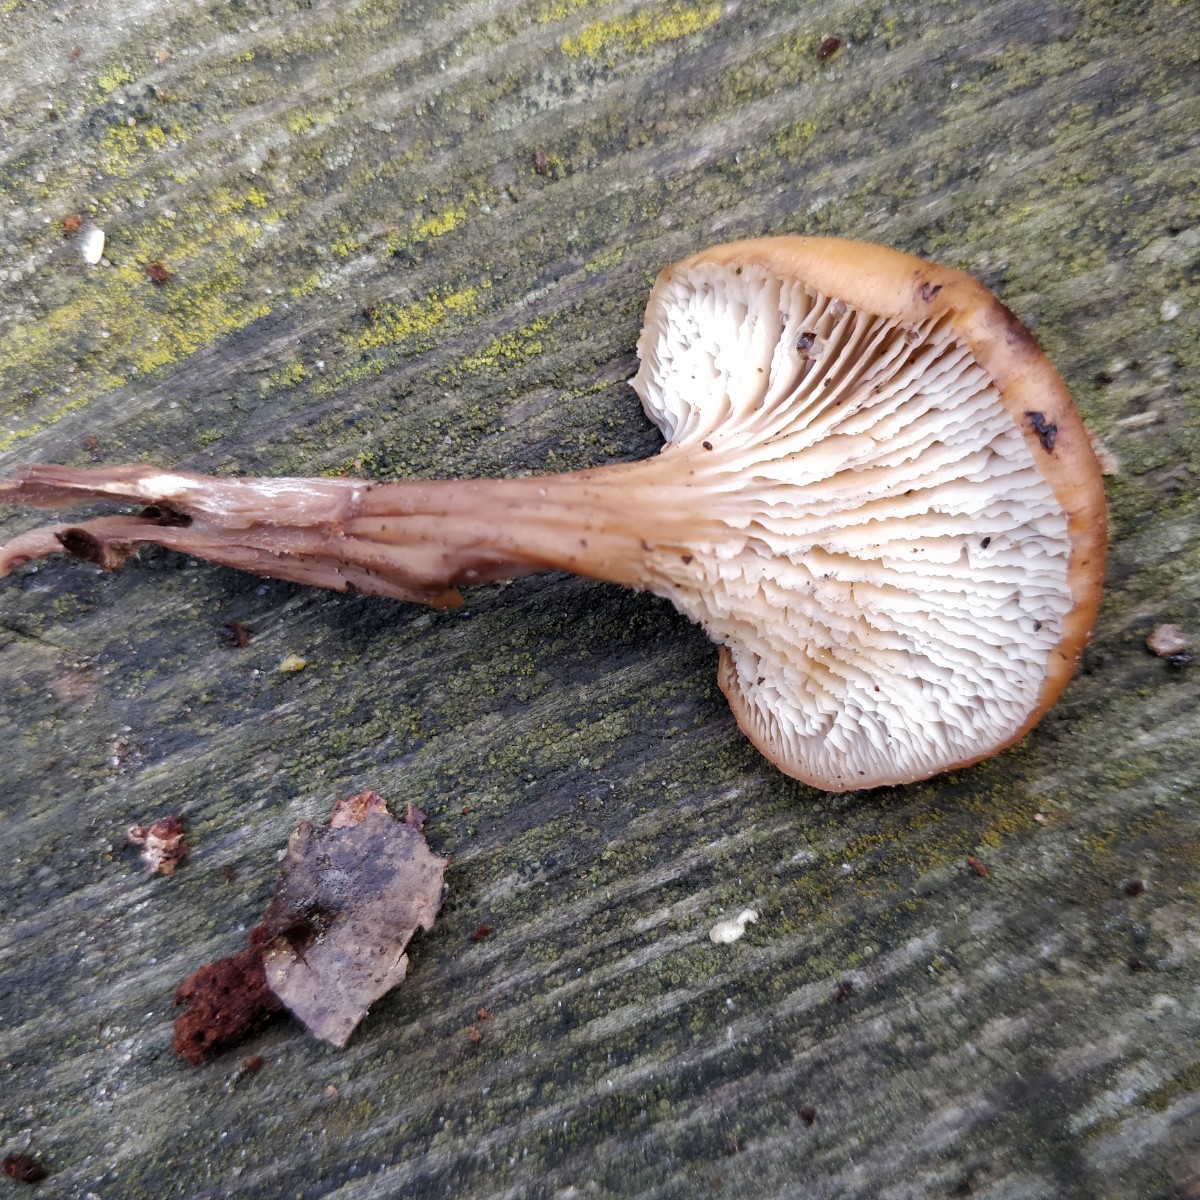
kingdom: Fungi
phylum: Basidiomycota
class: Agaricomycetes
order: Russulales
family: Auriscalpiaceae
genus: Lentinellus
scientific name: Lentinellus cochleatus
